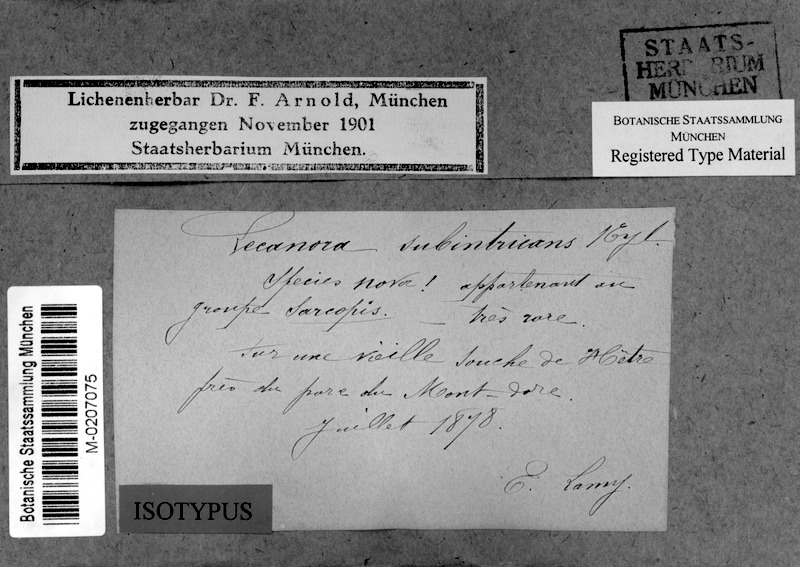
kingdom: Fungi
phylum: Ascomycota
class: Lecanoromycetes
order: Lecanorales
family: Lecanoraceae
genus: Lecanora
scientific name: Lecanora subintricans
